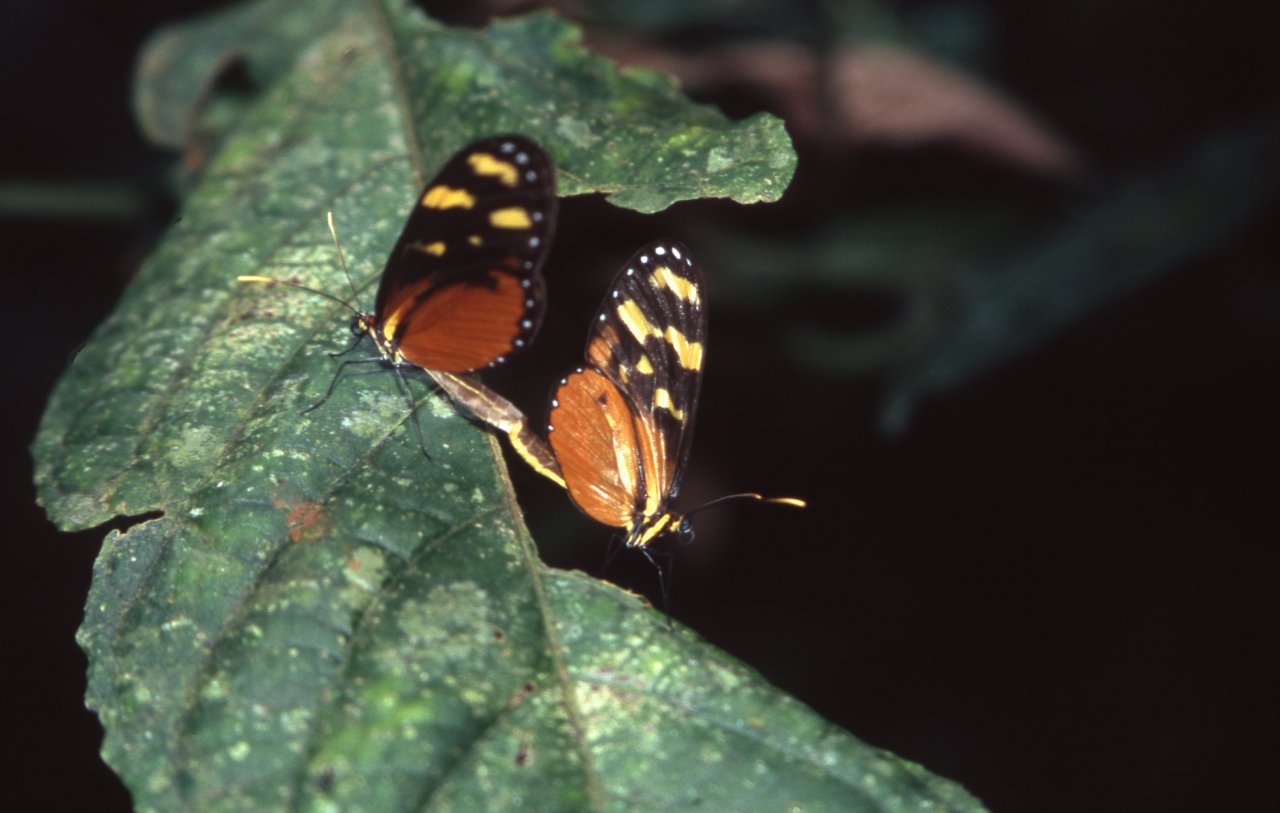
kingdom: Animalia
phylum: Arthropoda
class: Insecta
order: Lepidoptera
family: Nymphalidae
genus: Heliconius
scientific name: Heliconius hecale
